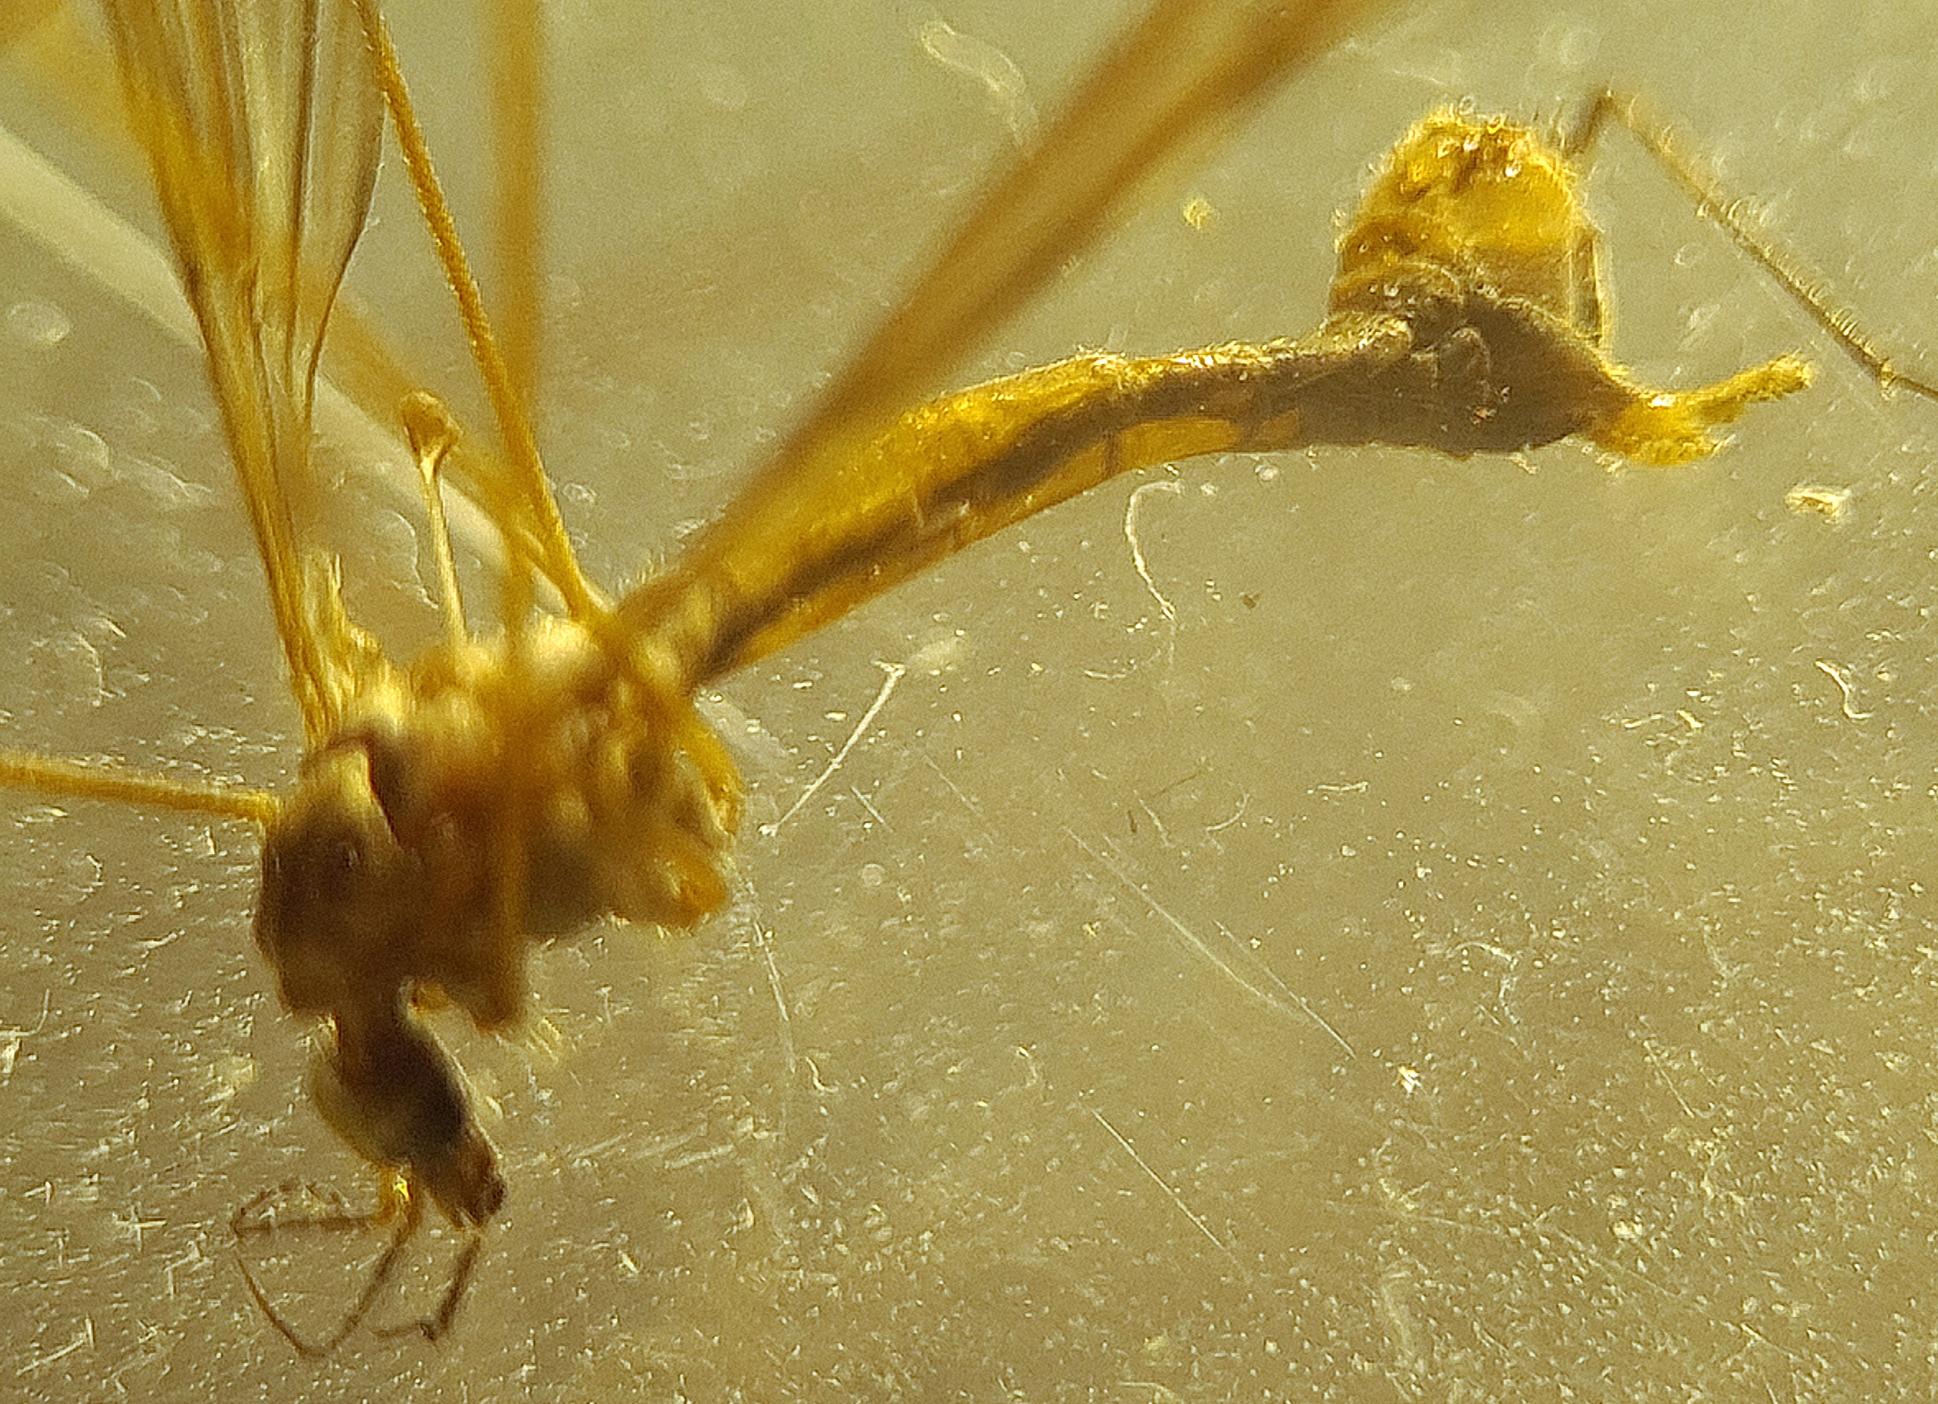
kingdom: Animalia
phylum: Arthropoda
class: Insecta
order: Diptera
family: Tipulidae
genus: Tipula
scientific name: Tipula staegeri
